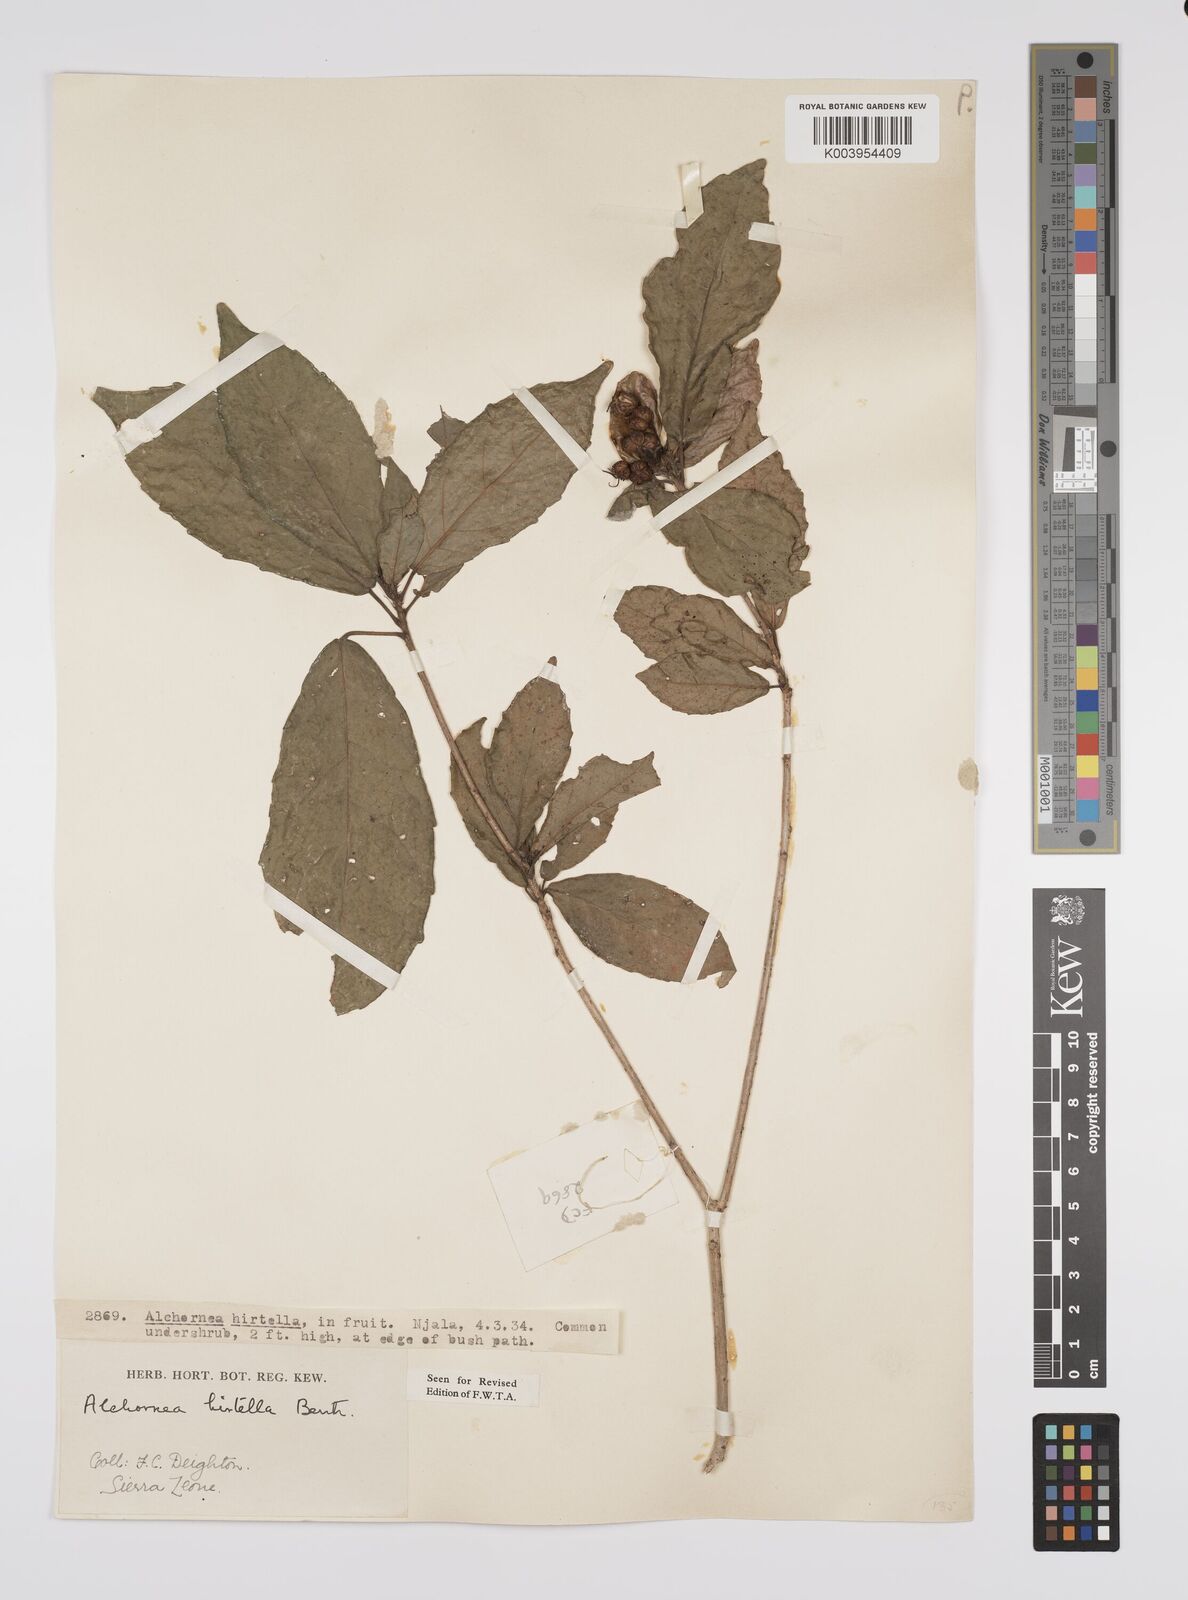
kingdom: Plantae
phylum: Tracheophyta
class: Magnoliopsida
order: Malpighiales
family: Euphorbiaceae
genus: Alchornea
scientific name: Alchornea hirtella
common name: Forest bead-string
